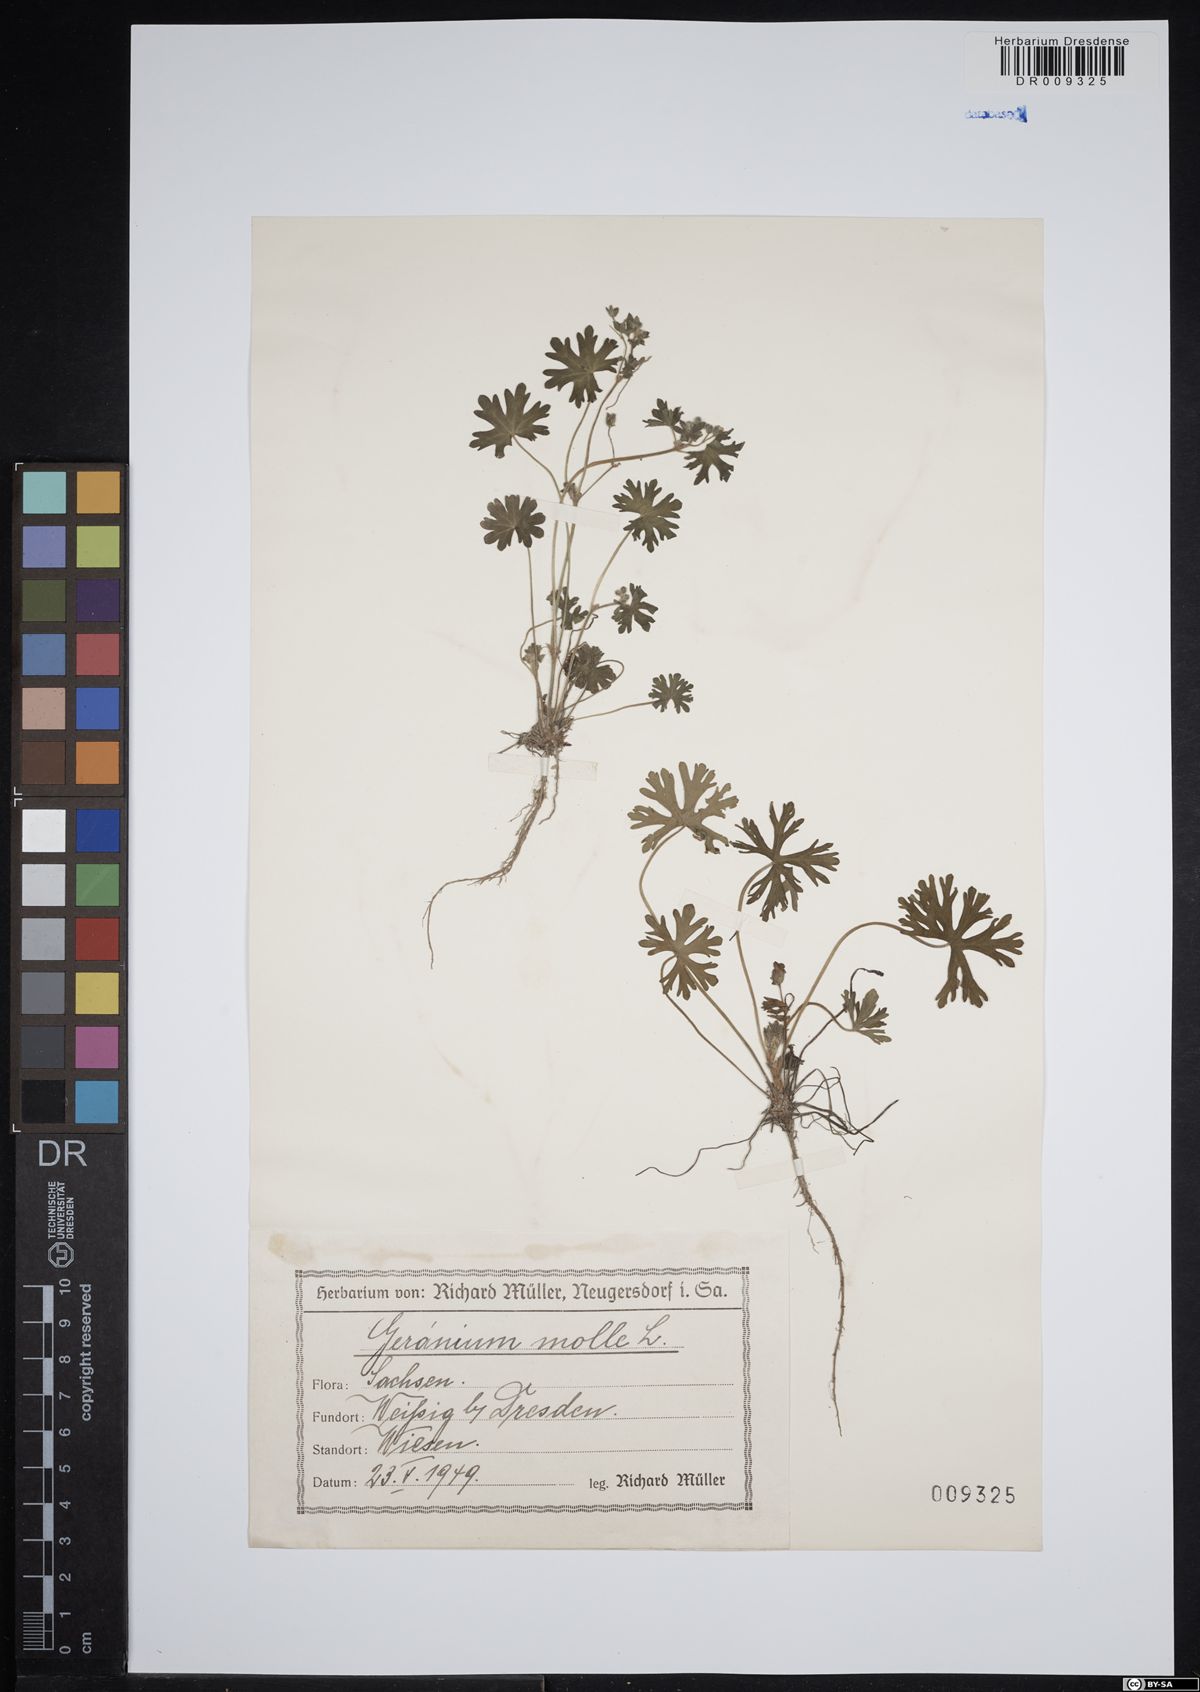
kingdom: Plantae
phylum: Tracheophyta
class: Magnoliopsida
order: Geraniales
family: Geraniaceae
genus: Geranium
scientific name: Geranium molle
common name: Dove's-foot crane's-bill
